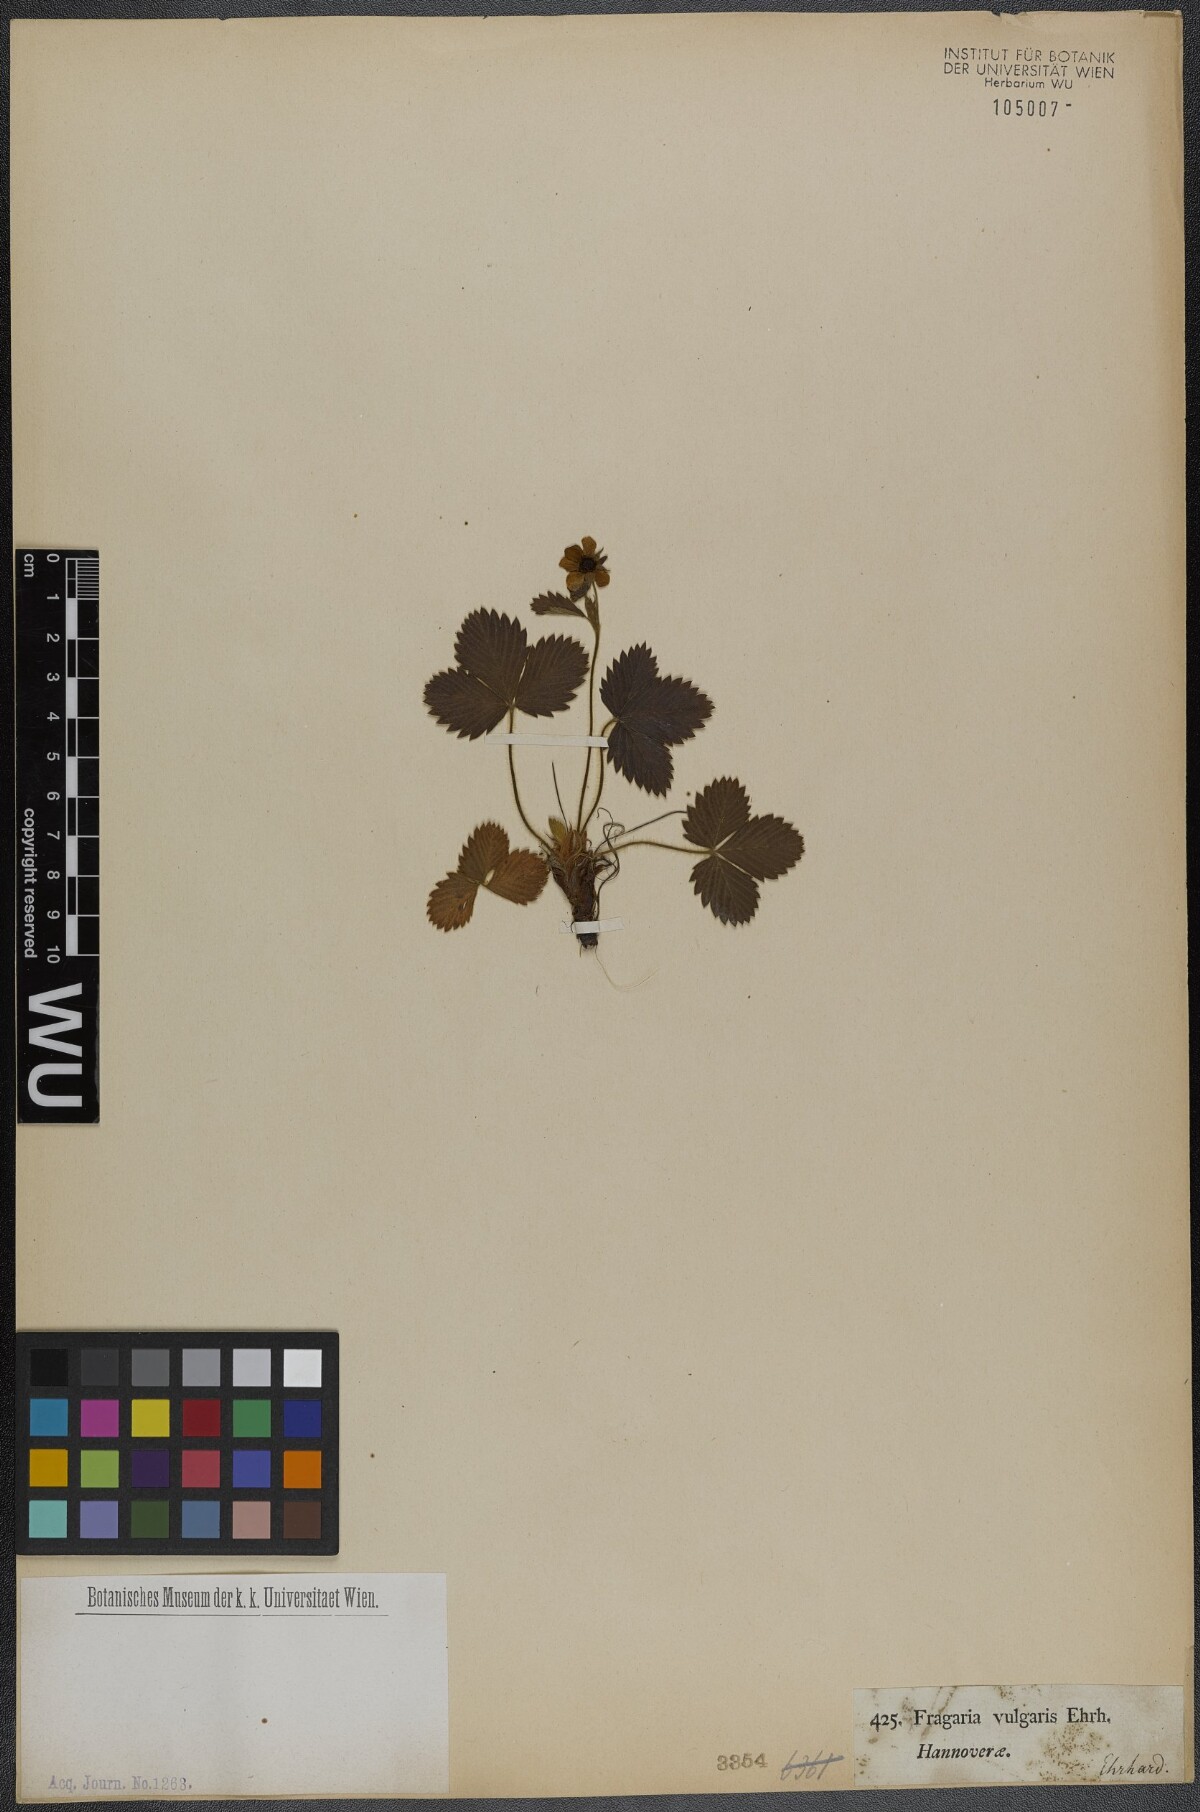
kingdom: Plantae
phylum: Tracheophyta
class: Magnoliopsida
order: Rosales
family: Rosaceae
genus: Fragaria
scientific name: Fragaria vesca
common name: Wild strawberry
